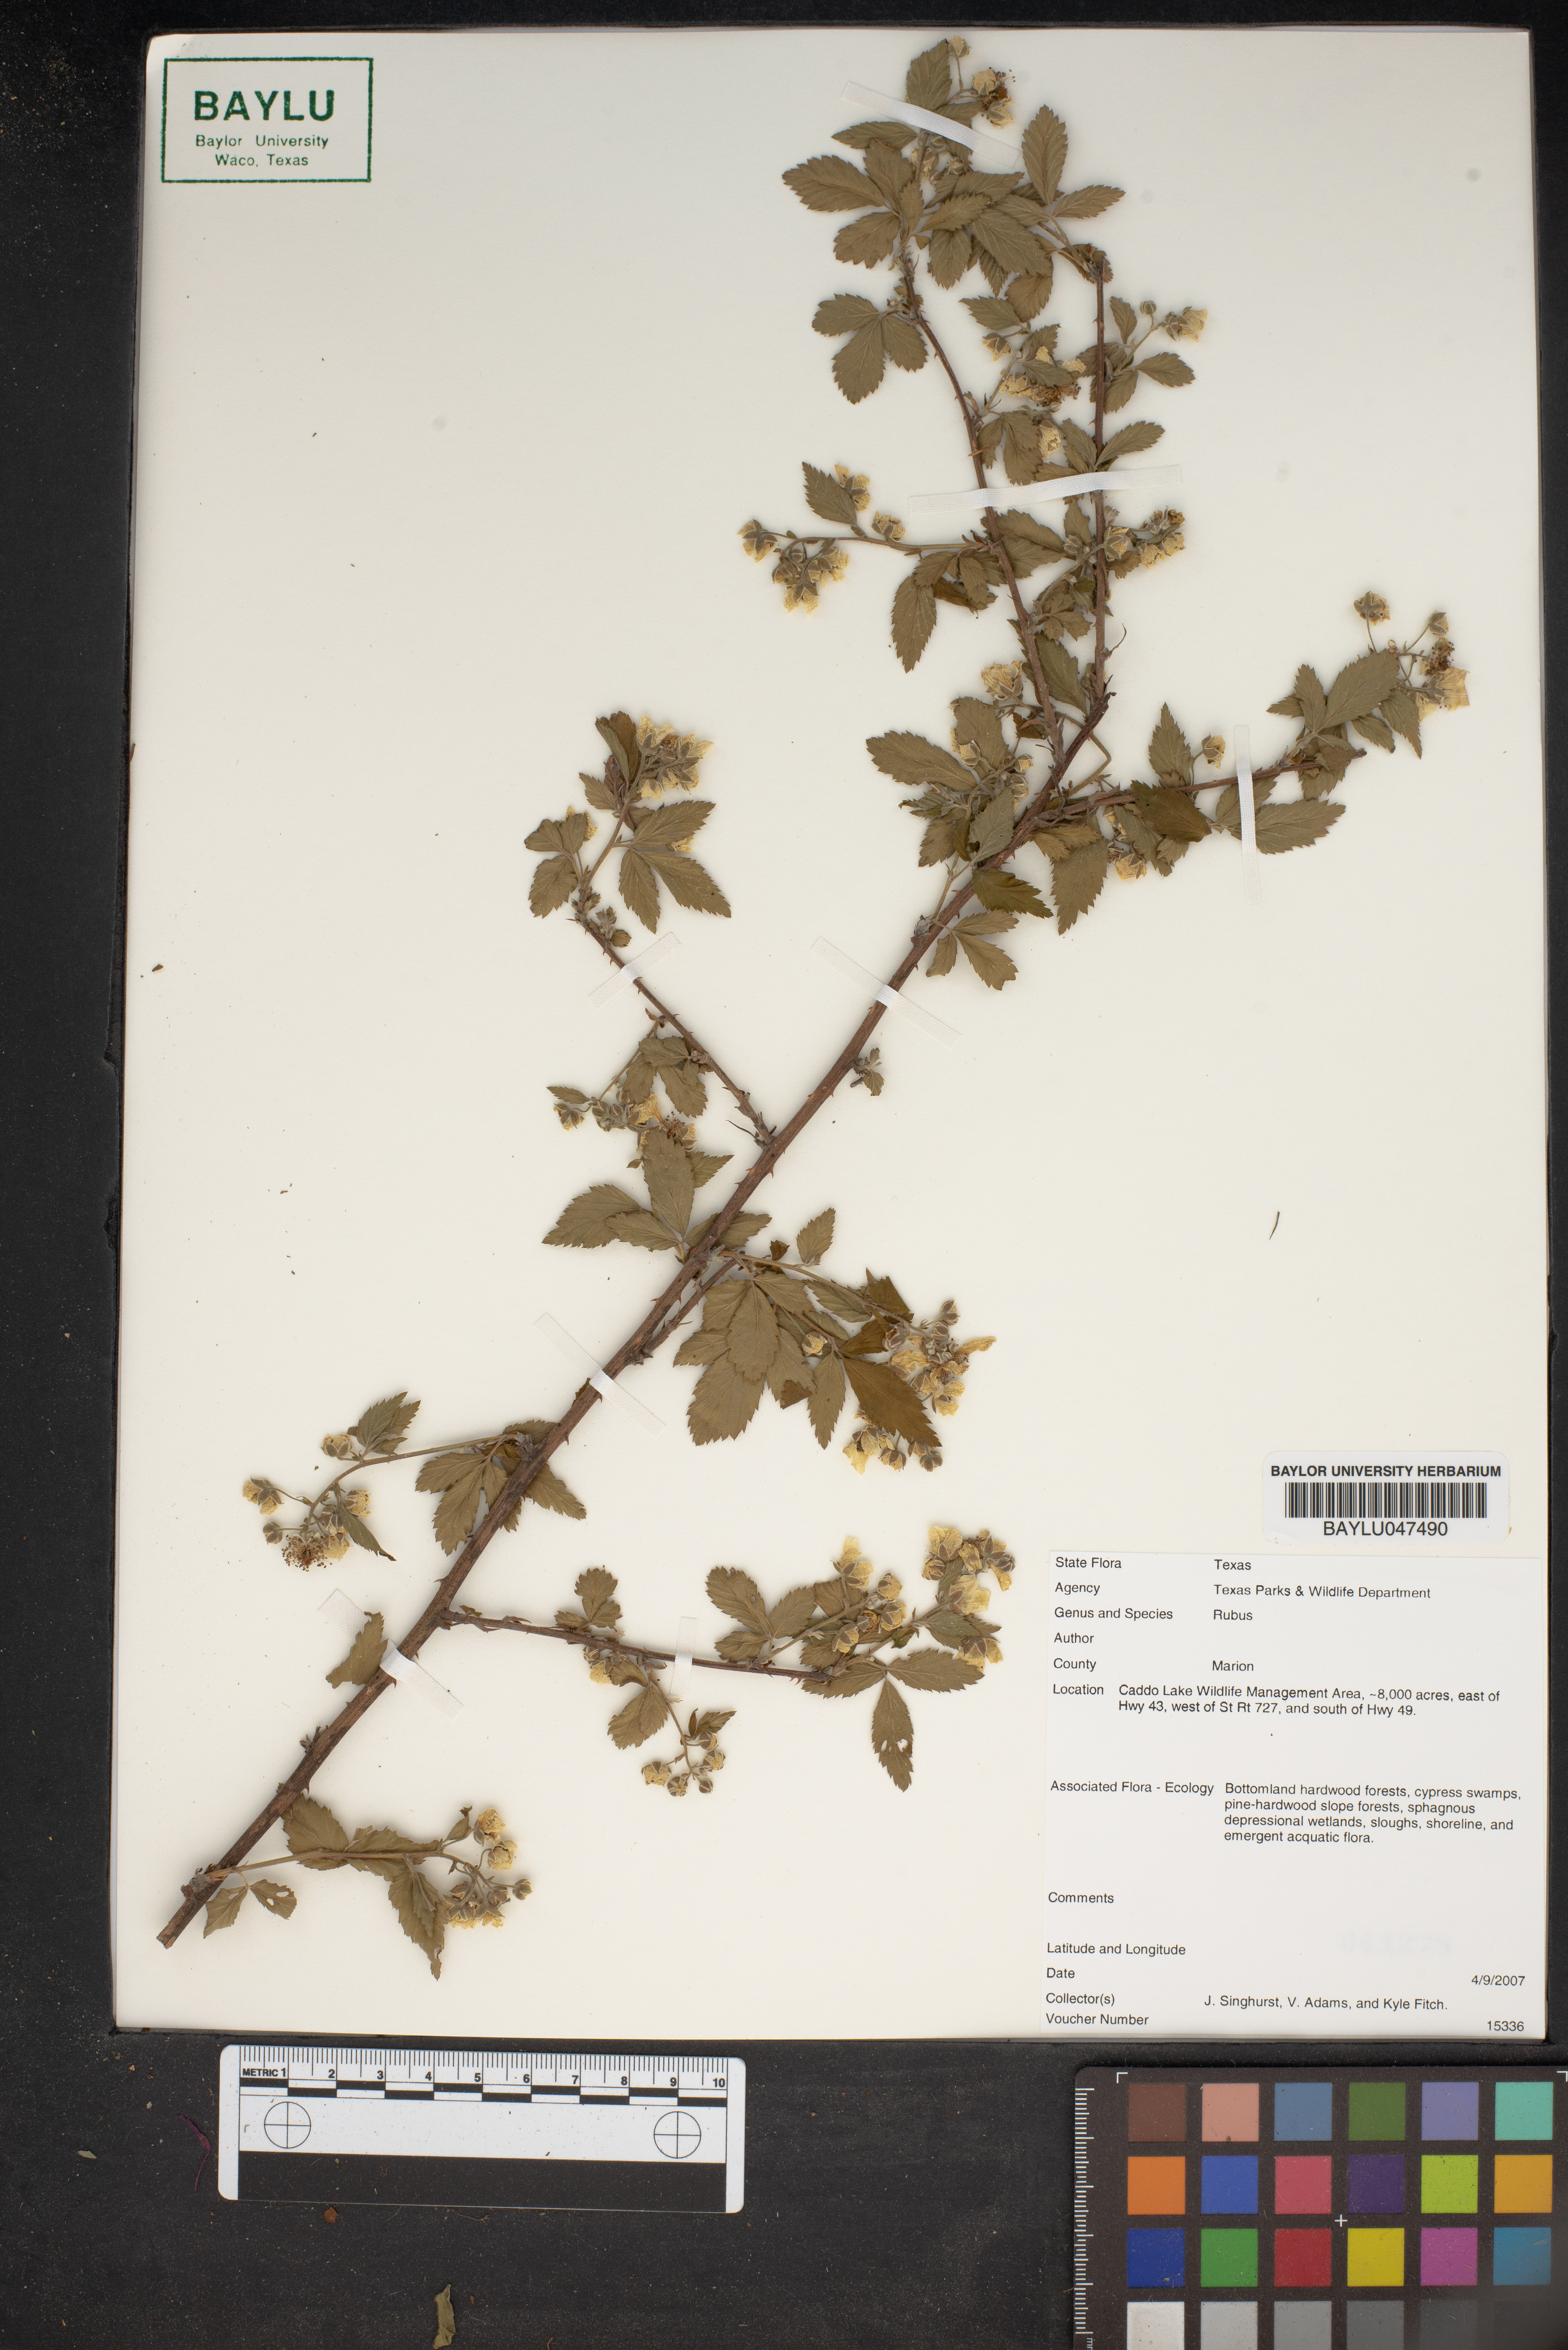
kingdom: Plantae
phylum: Tracheophyta
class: Magnoliopsida
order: Rosales
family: Rosaceae
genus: Rubus
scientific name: Rubus
